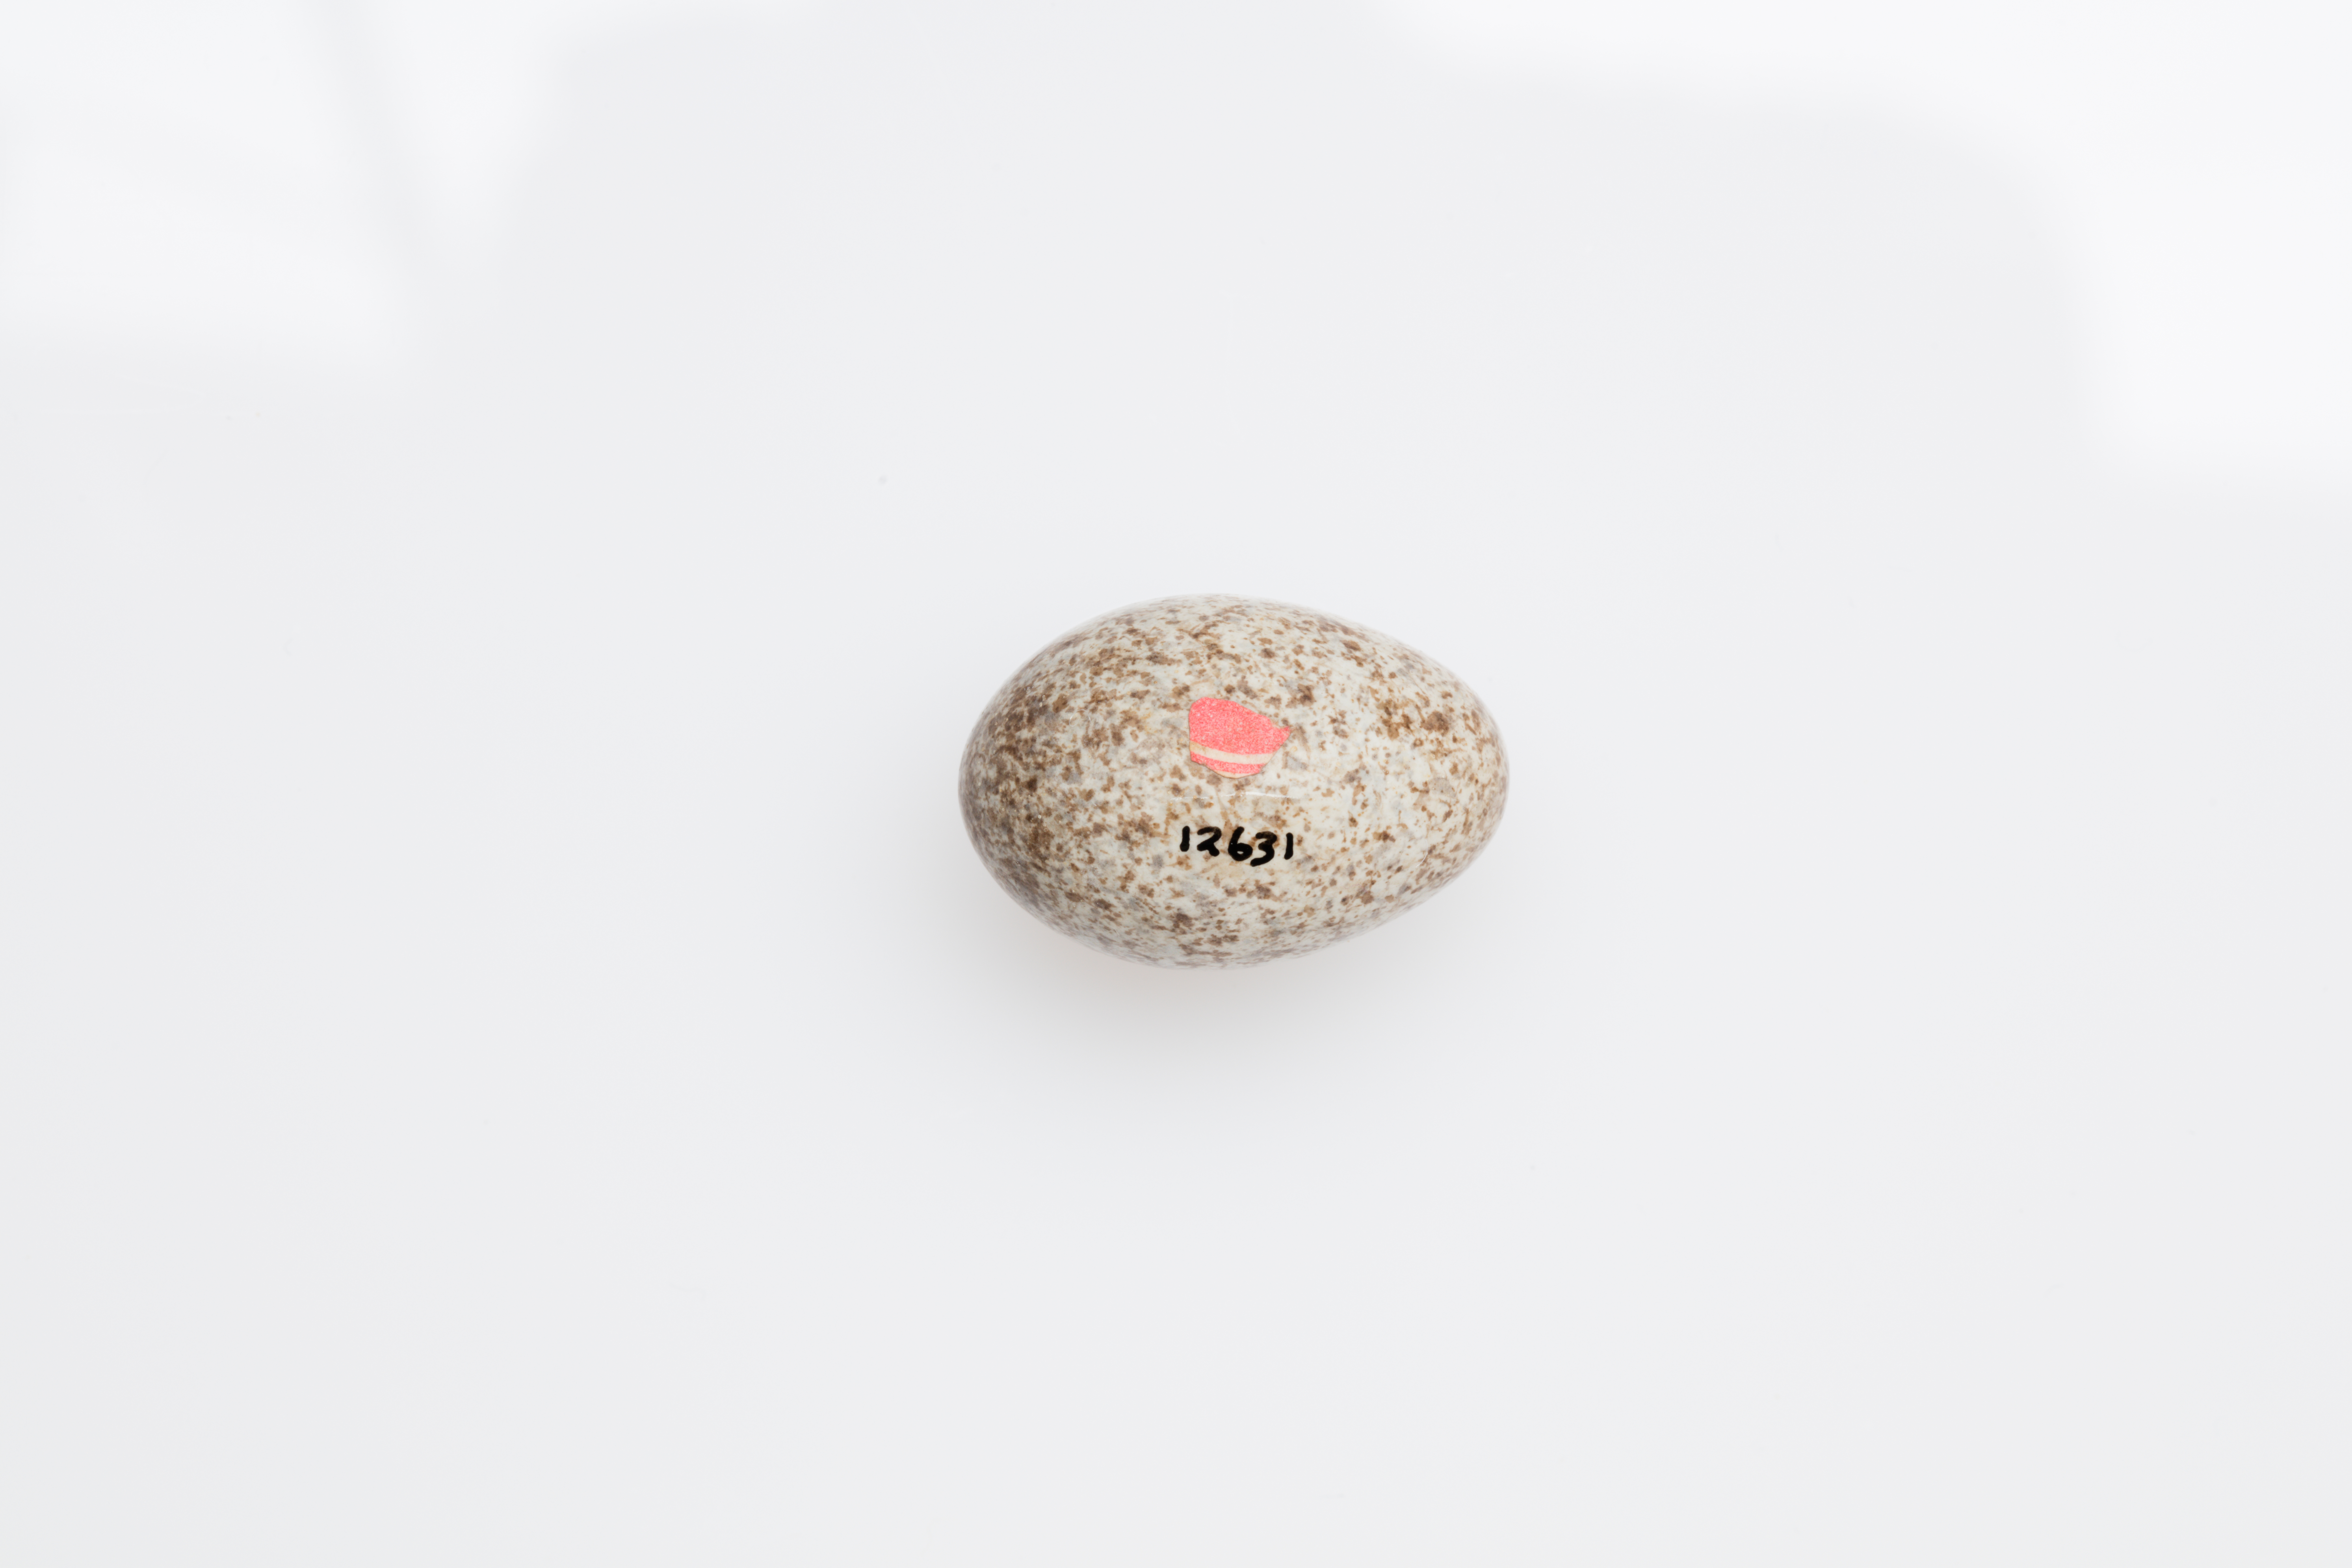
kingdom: Animalia
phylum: Chordata
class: Aves
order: Passeriformes
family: Motacillidae
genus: Anthus
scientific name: Anthus australis
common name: Australian pipit
